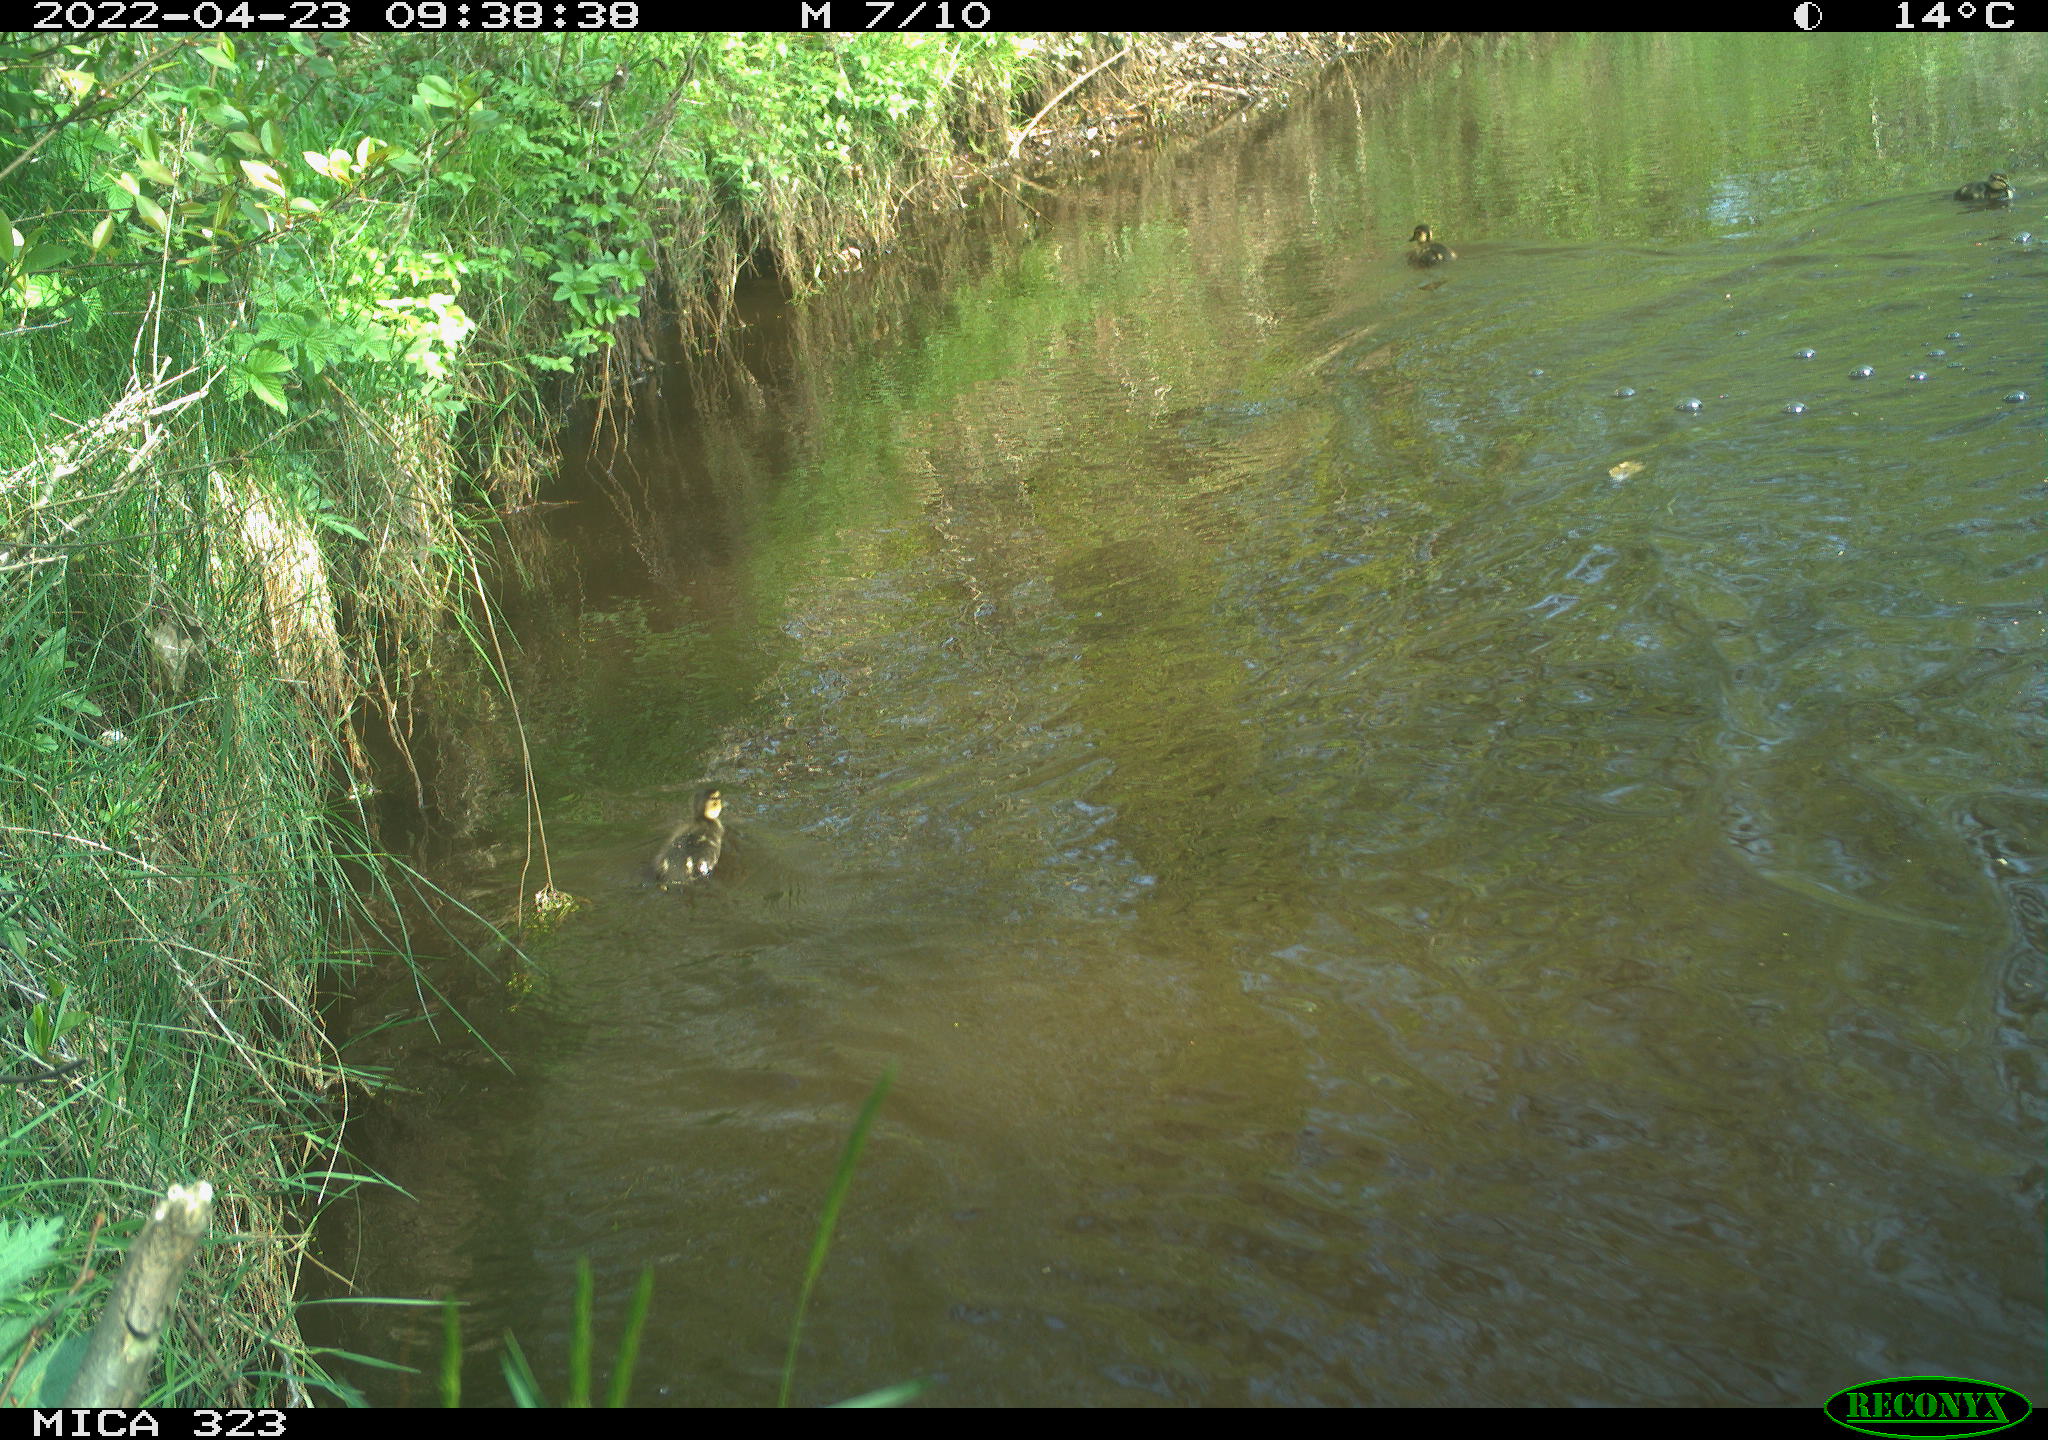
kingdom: Animalia
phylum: Chordata
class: Aves
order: Anseriformes
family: Anatidae
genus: Anas
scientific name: Anas
